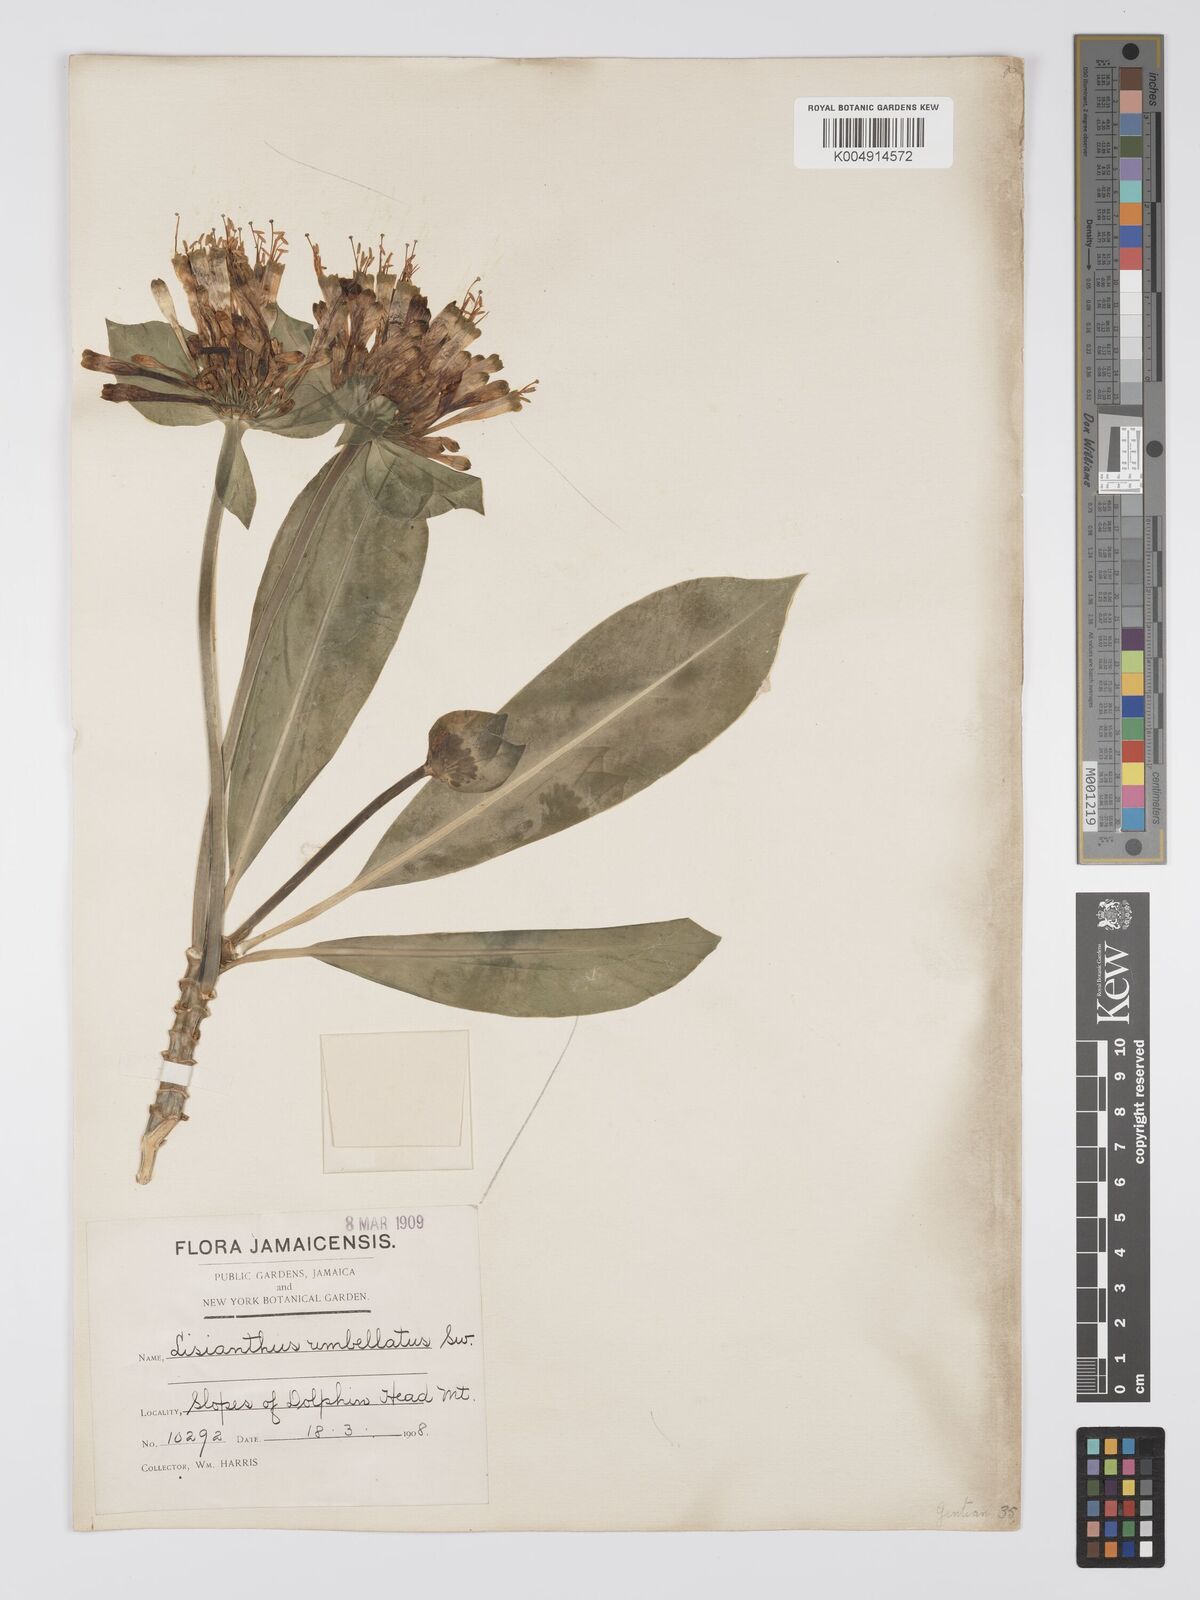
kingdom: Plantae
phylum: Tracheophyta
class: Magnoliopsida
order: Gentianales
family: Gentianaceae
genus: Lisianthus
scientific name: Lisianthus umbellatus
